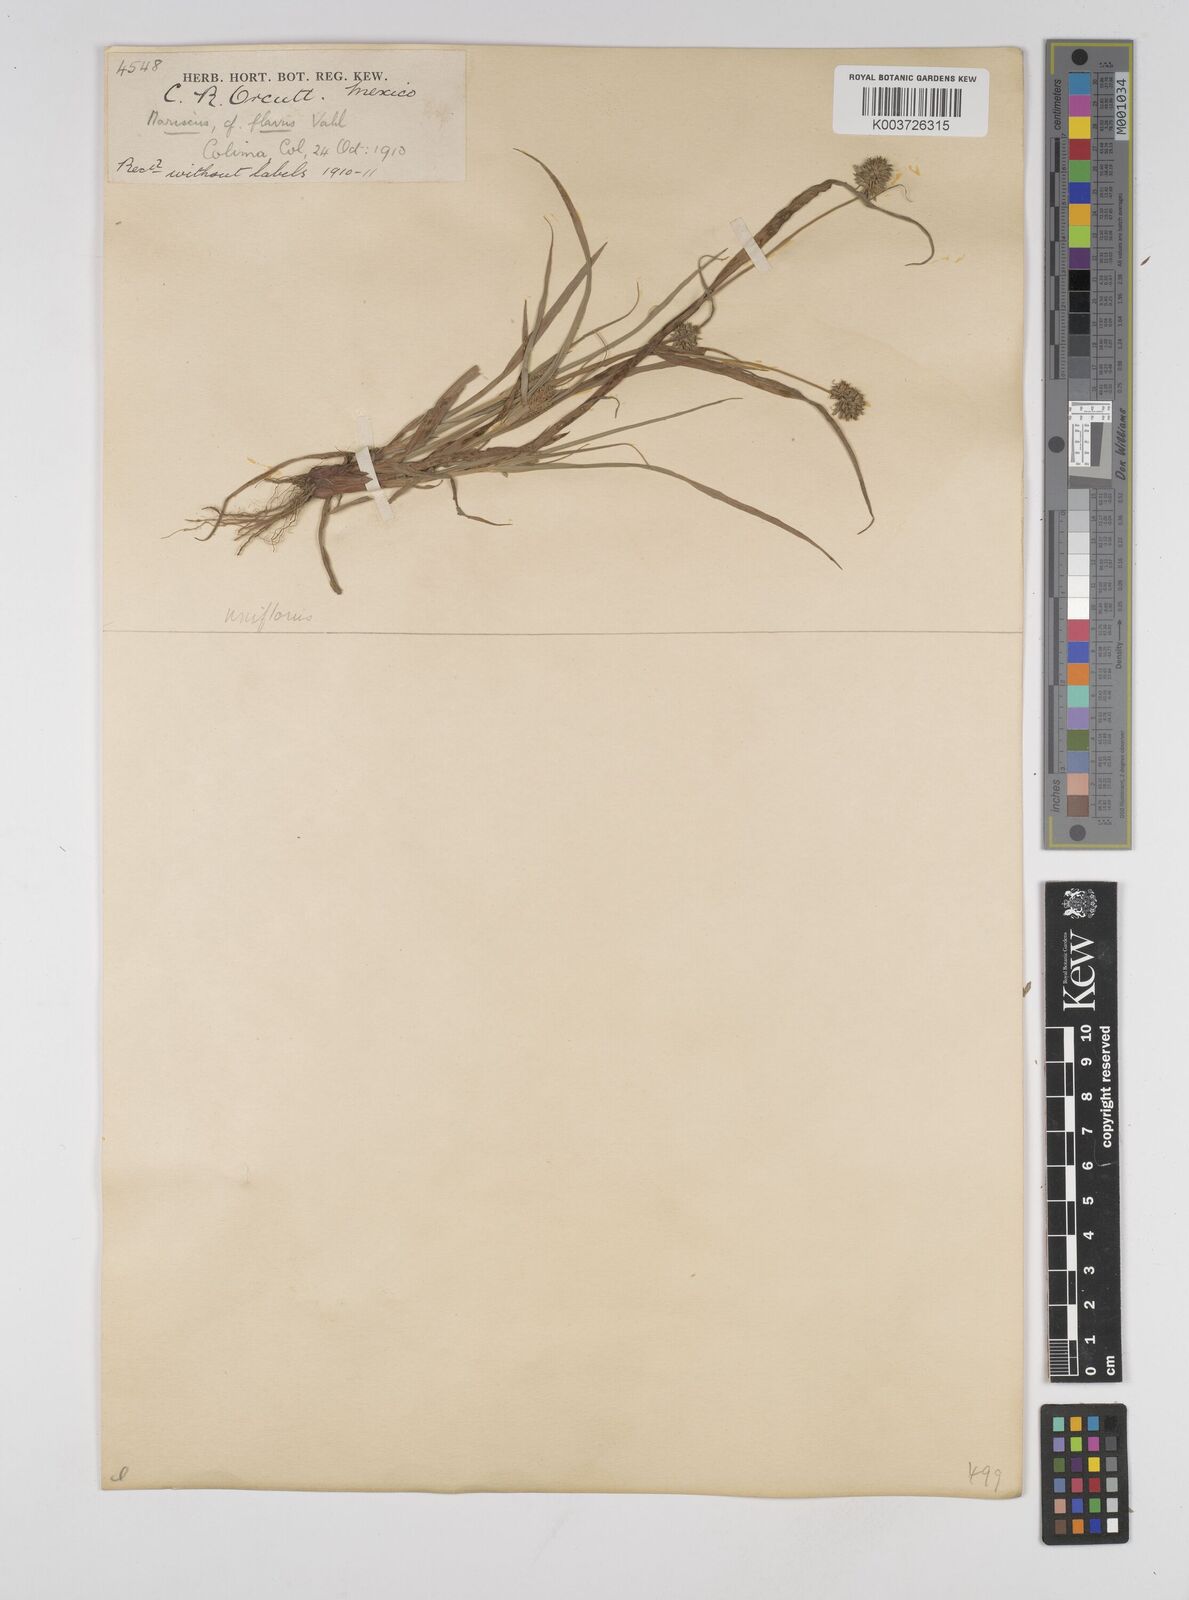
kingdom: Plantae
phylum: Tracheophyta
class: Liliopsida
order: Poales
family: Cyperaceae
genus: Cyperus
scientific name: Cyperus retroflexus
